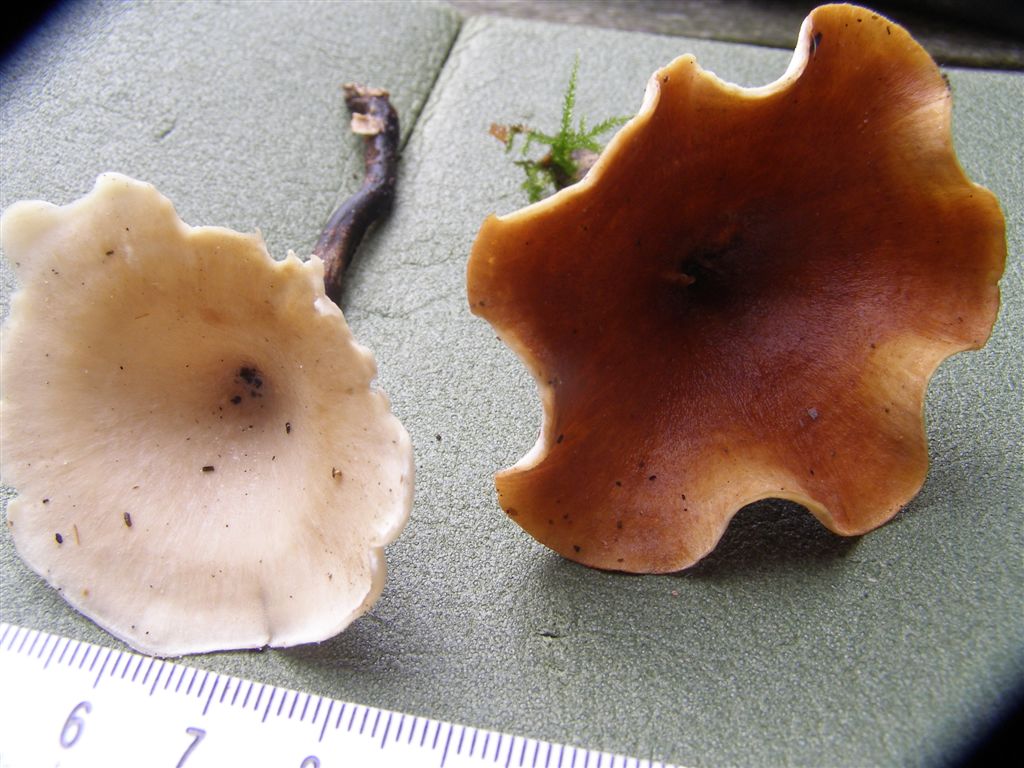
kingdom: Fungi
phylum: Basidiomycota
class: Agaricomycetes
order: Polyporales
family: Polyporaceae
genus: Picipes
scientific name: Picipes tubaeformis
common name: trompet-stilkporesvamp
